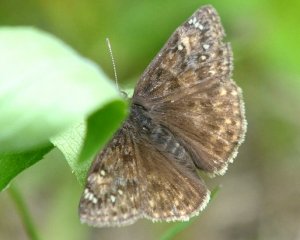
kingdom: Animalia
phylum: Arthropoda
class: Insecta
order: Lepidoptera
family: Hesperiidae
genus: Gesta
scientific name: Gesta
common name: Juvenal's Duskywing
